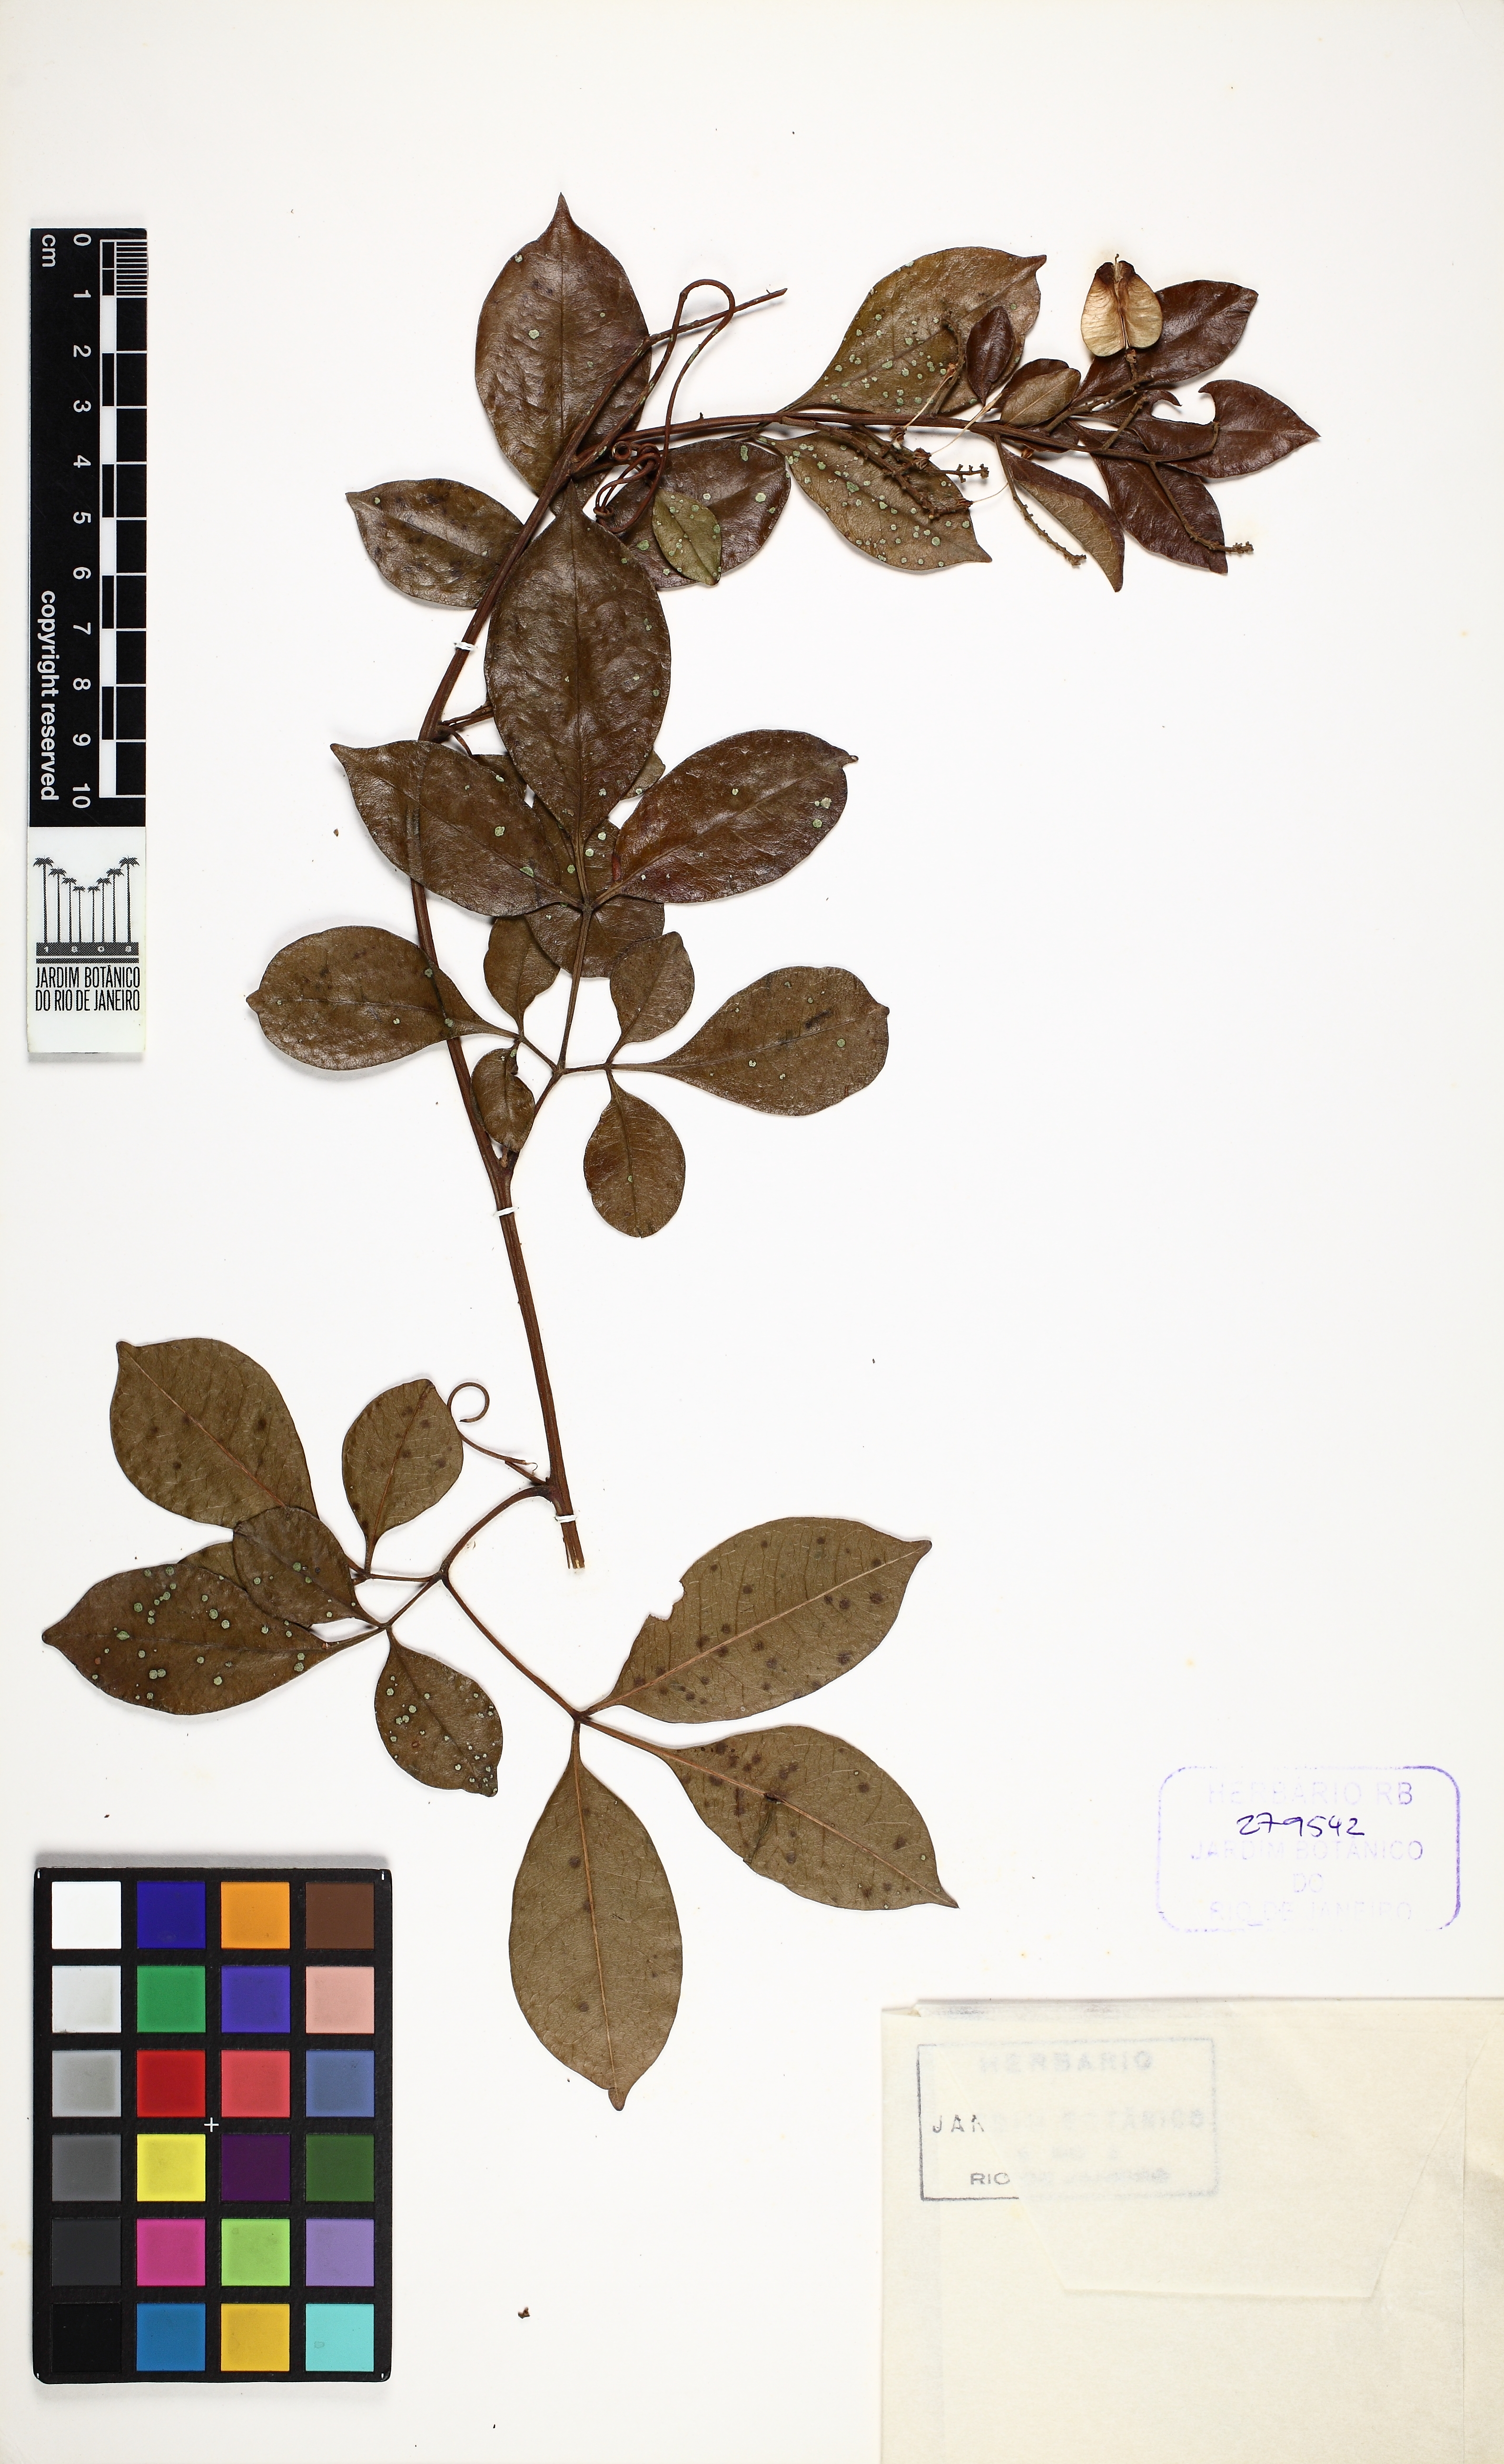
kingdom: Plantae
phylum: Tracheophyta
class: Magnoliopsida
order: Sapindales
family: Sapindaceae
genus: Serjania
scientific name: Serjania ichthyctona
